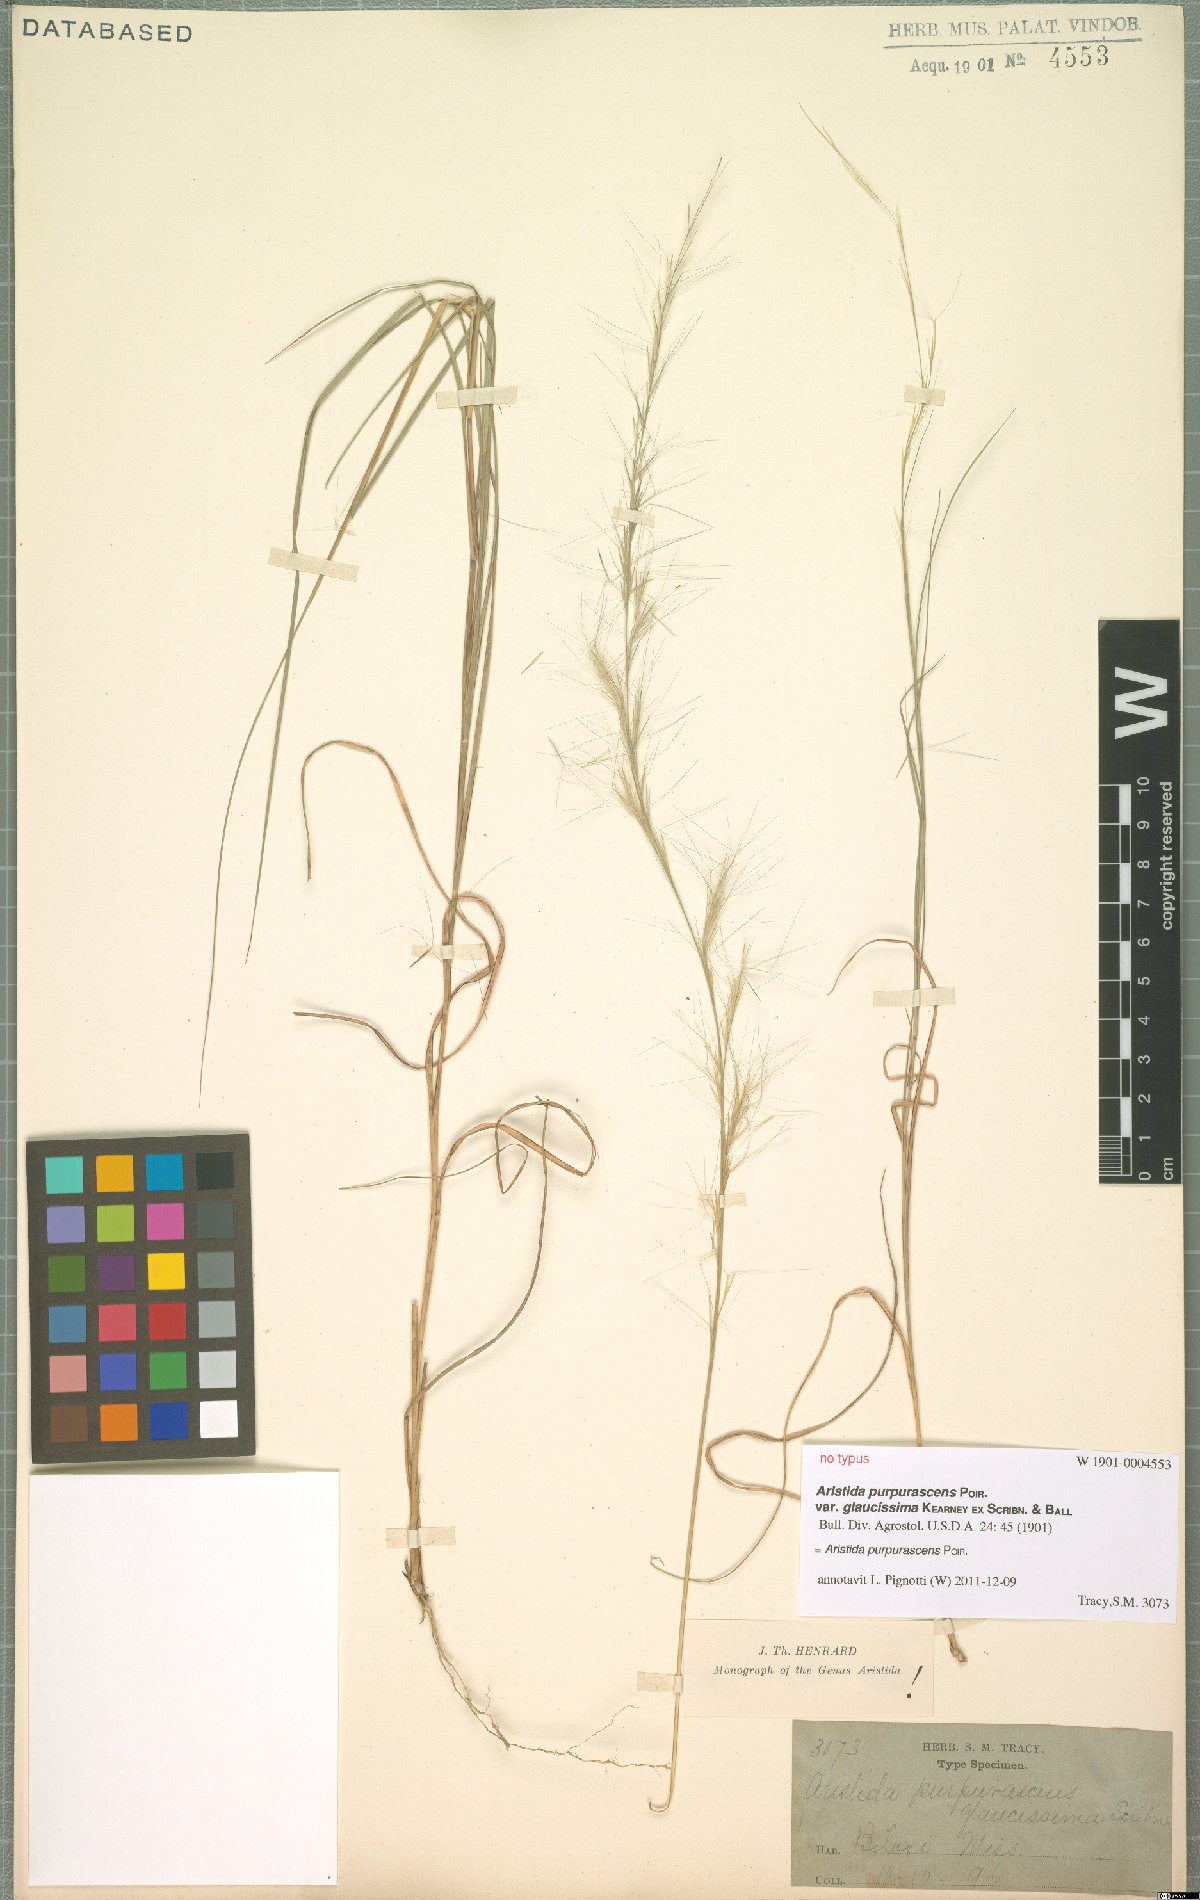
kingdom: Plantae
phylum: Tracheophyta
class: Liliopsida
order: Poales
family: Poaceae
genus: Aristida
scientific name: Aristida purpurascens
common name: Arrow-feather
